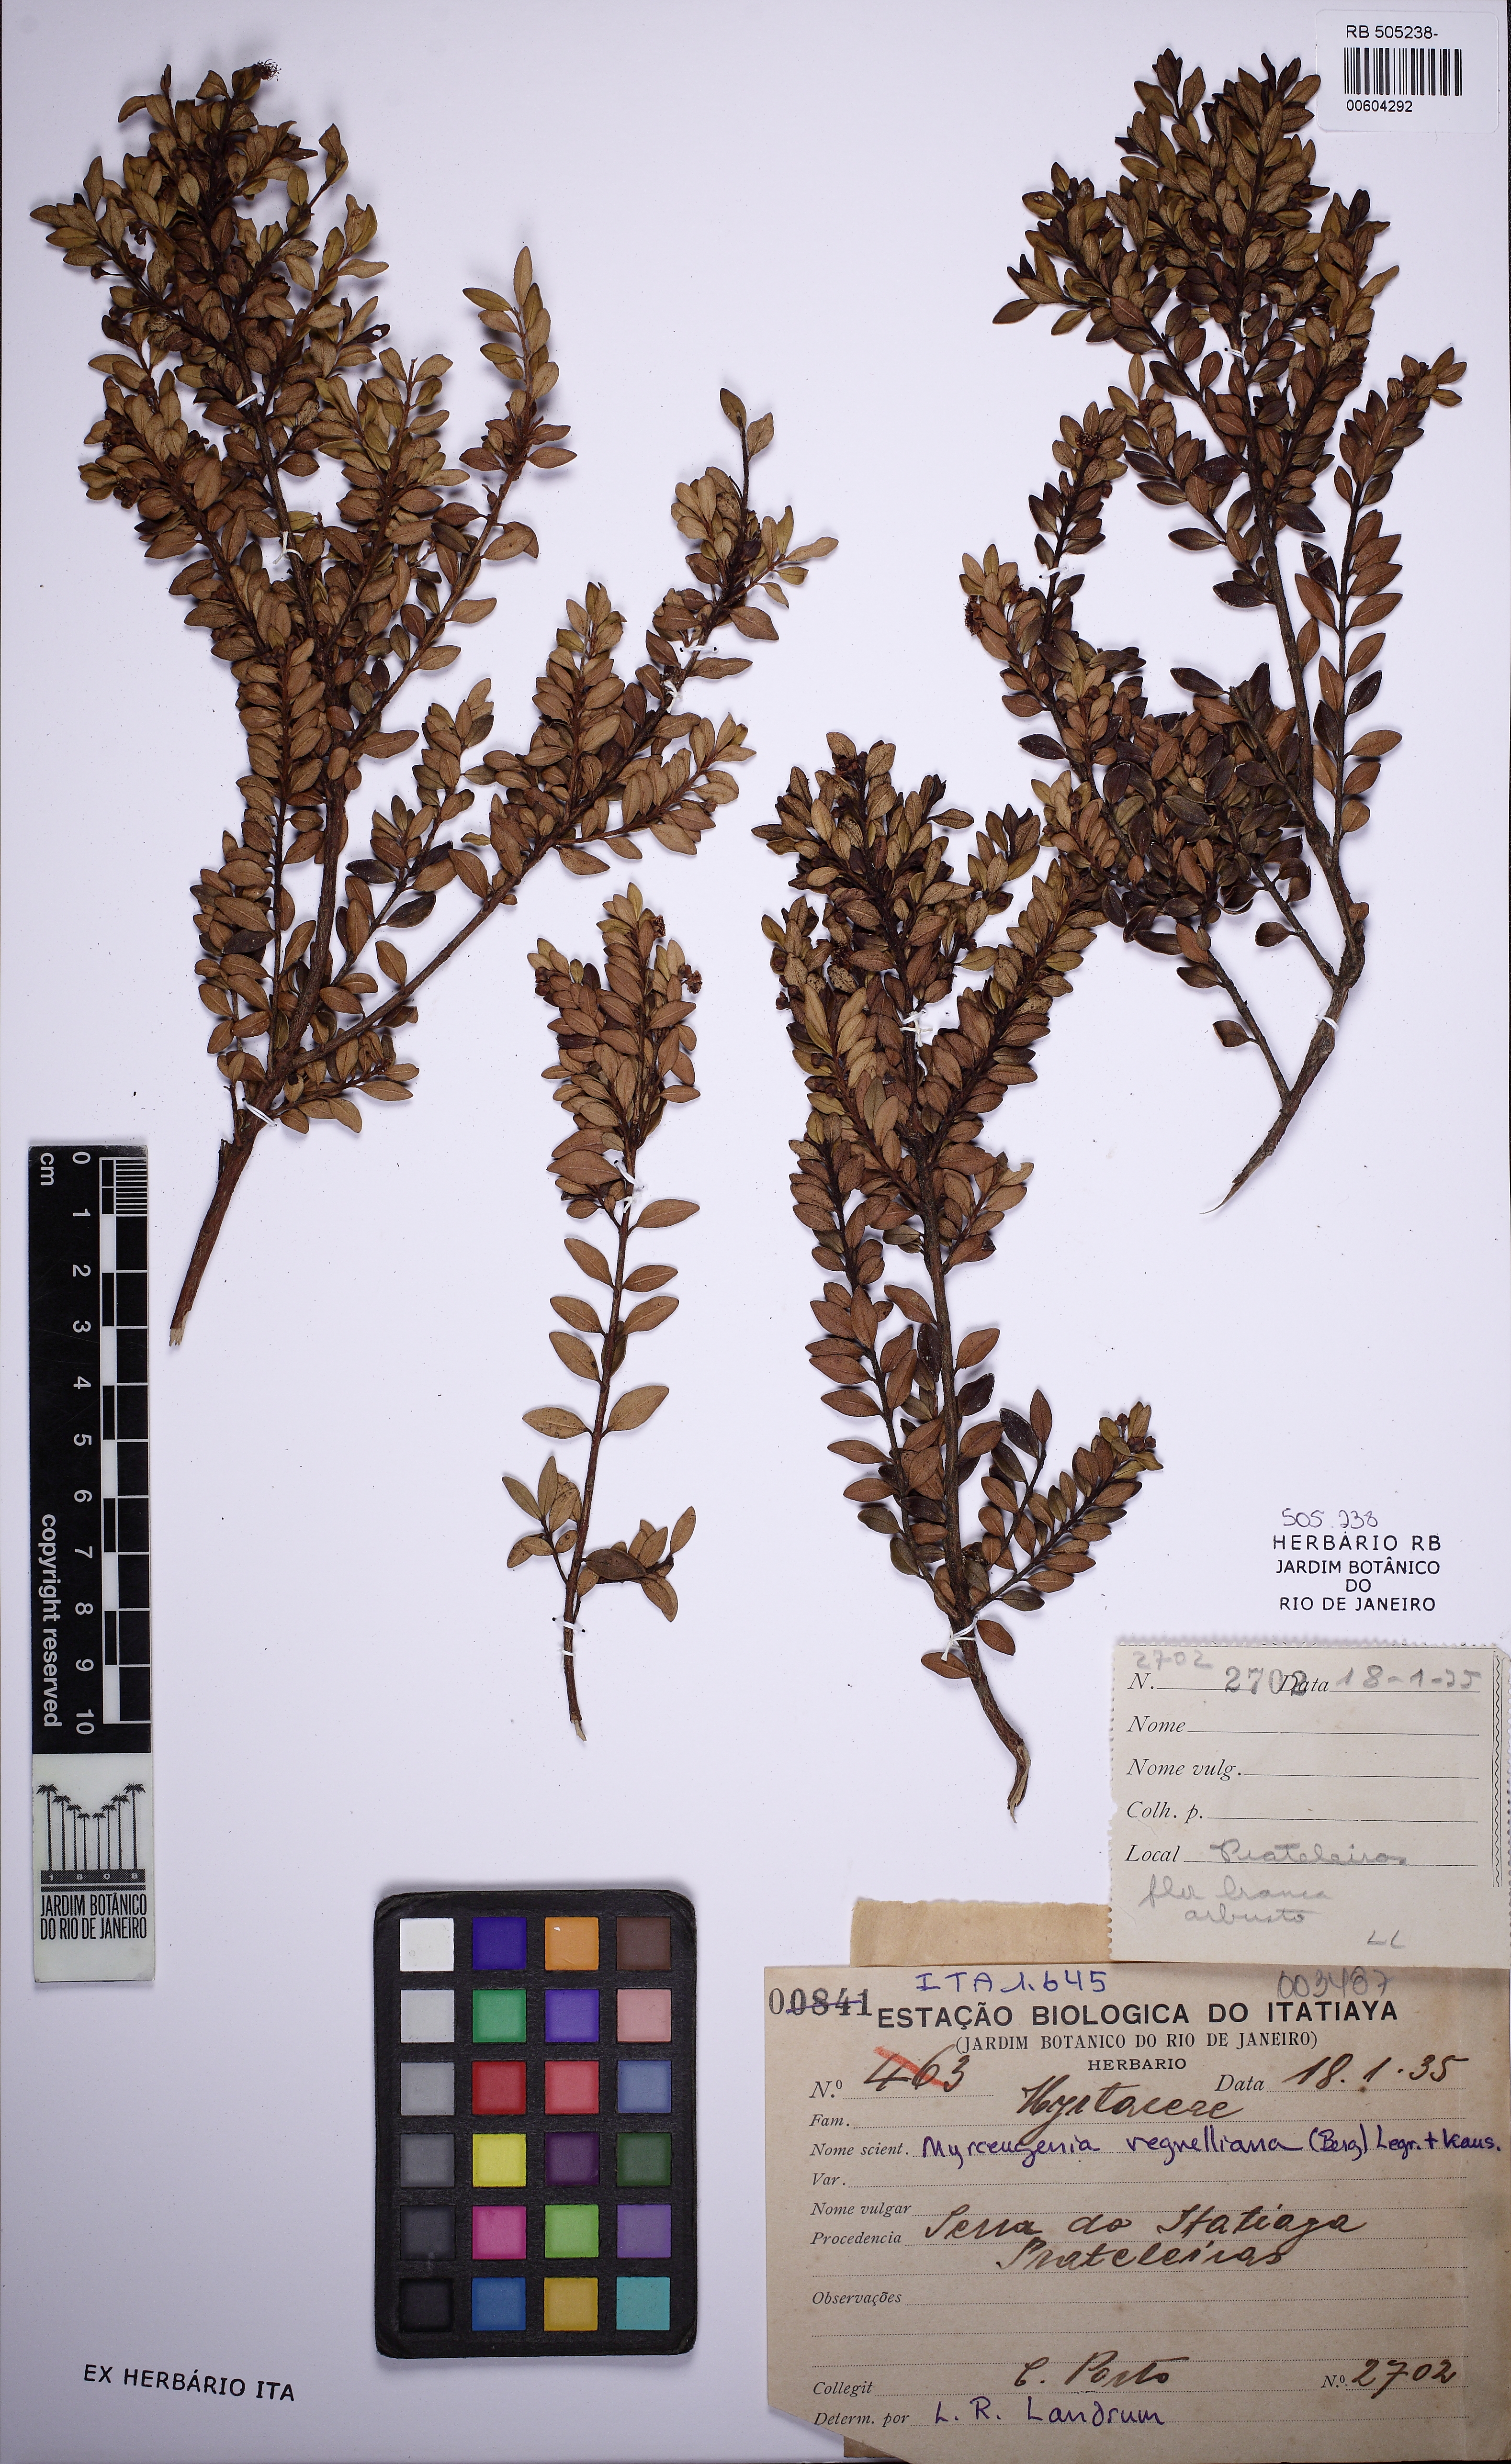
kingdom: Plantae
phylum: Tracheophyta
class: Magnoliopsida
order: Myrtales
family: Myrtaceae
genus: Myrceugenia
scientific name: Myrceugenia ovata
